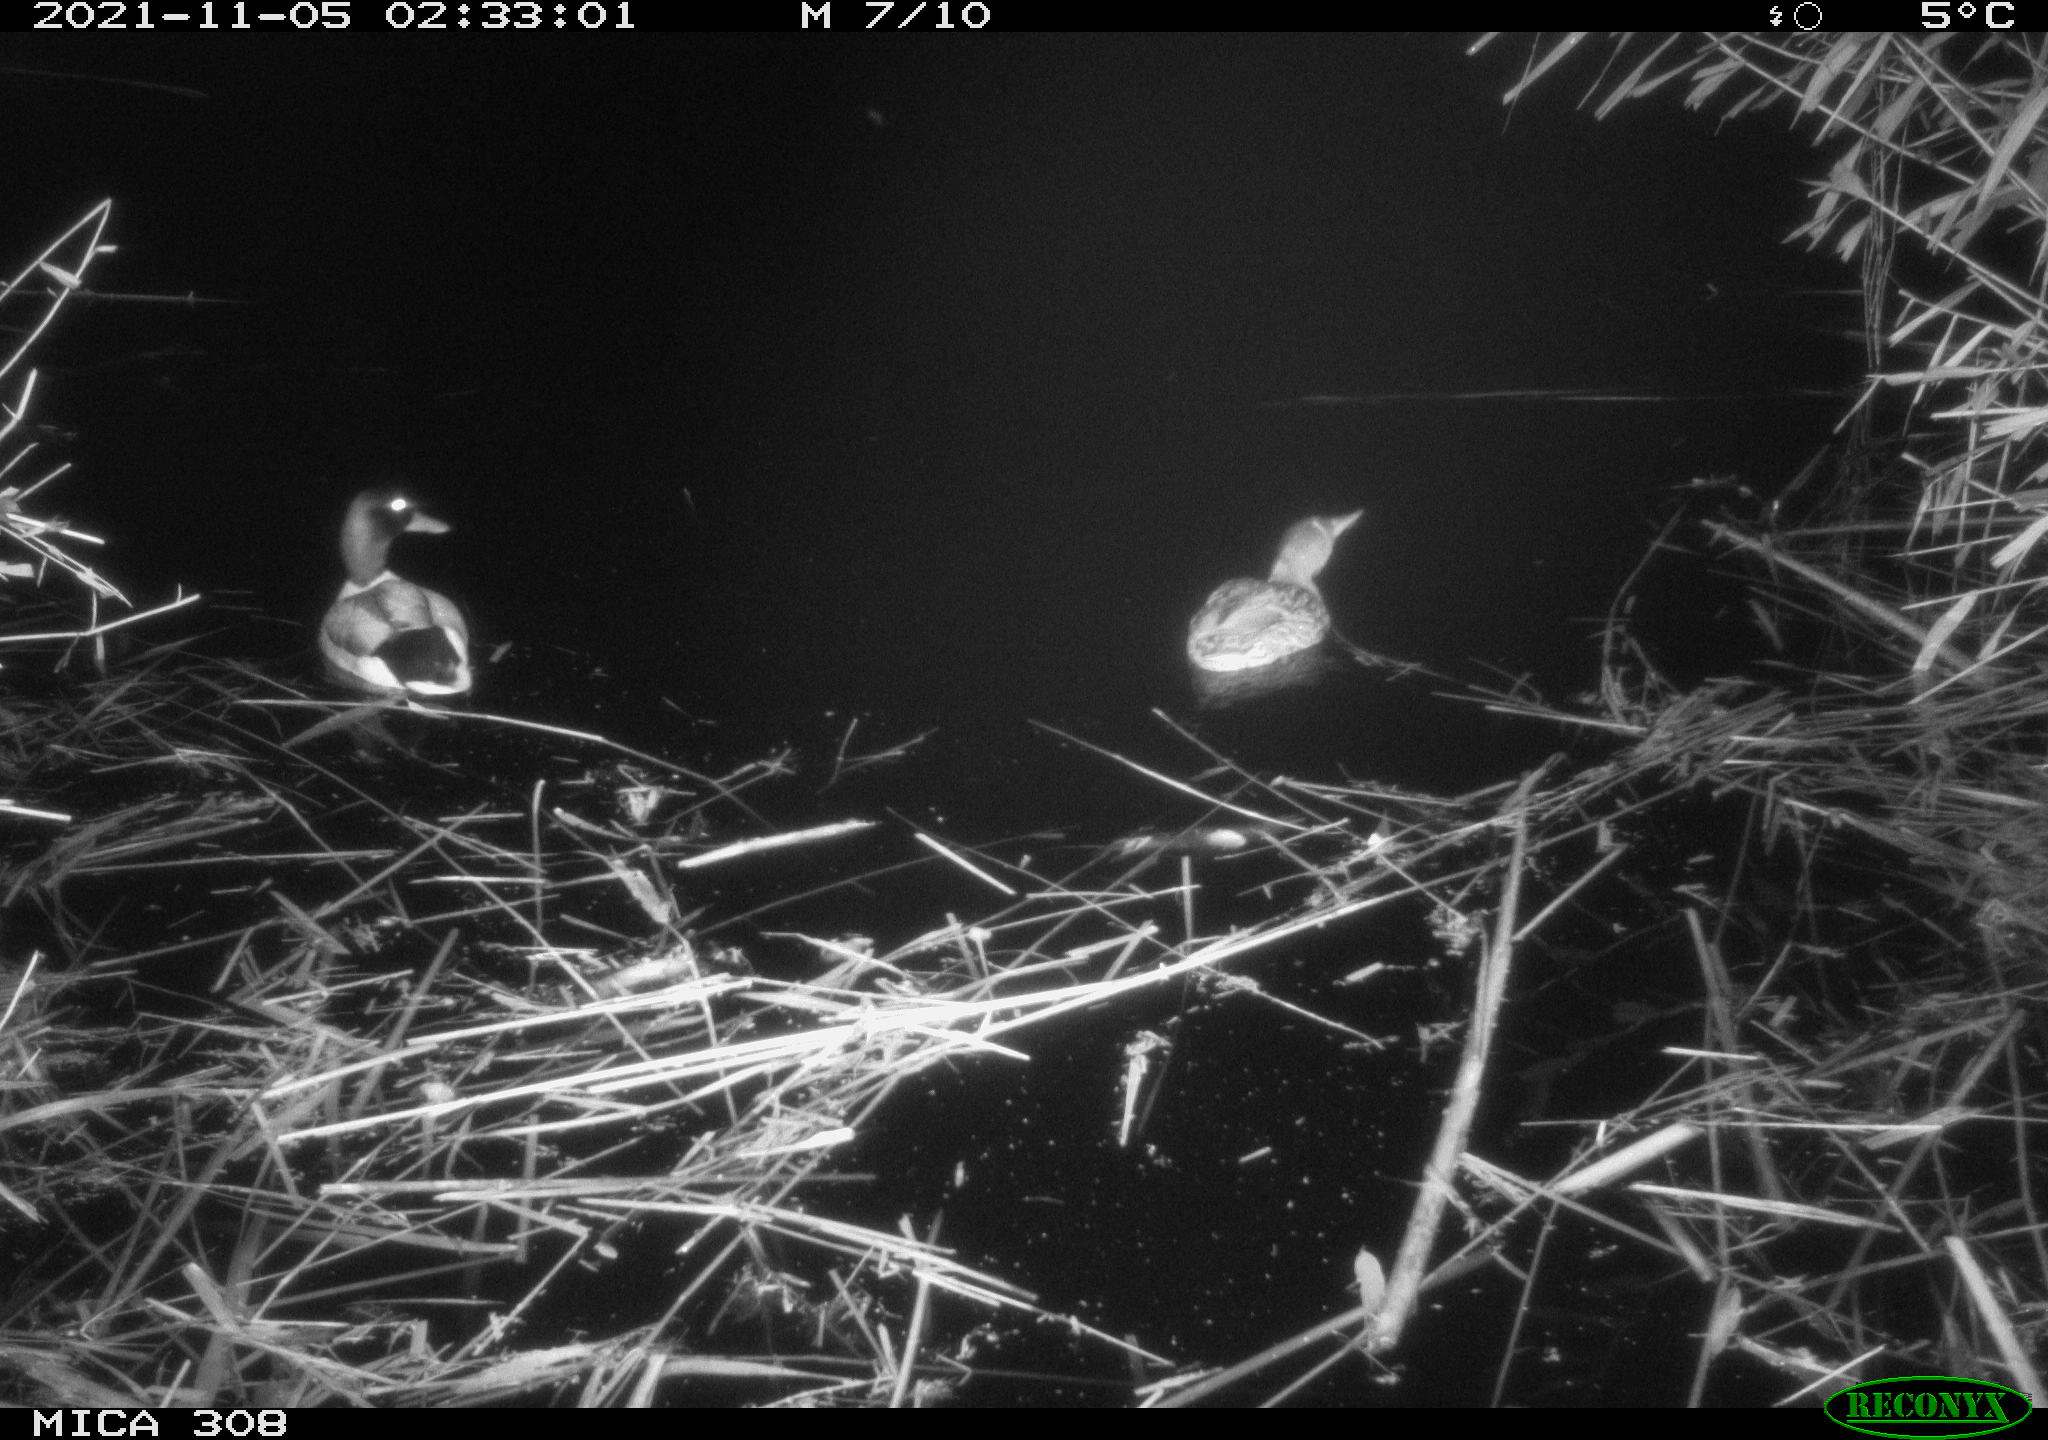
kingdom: Animalia
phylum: Chordata
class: Aves
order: Anseriformes
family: Anatidae
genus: Anas
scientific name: Anas platyrhynchos
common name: Mallard
